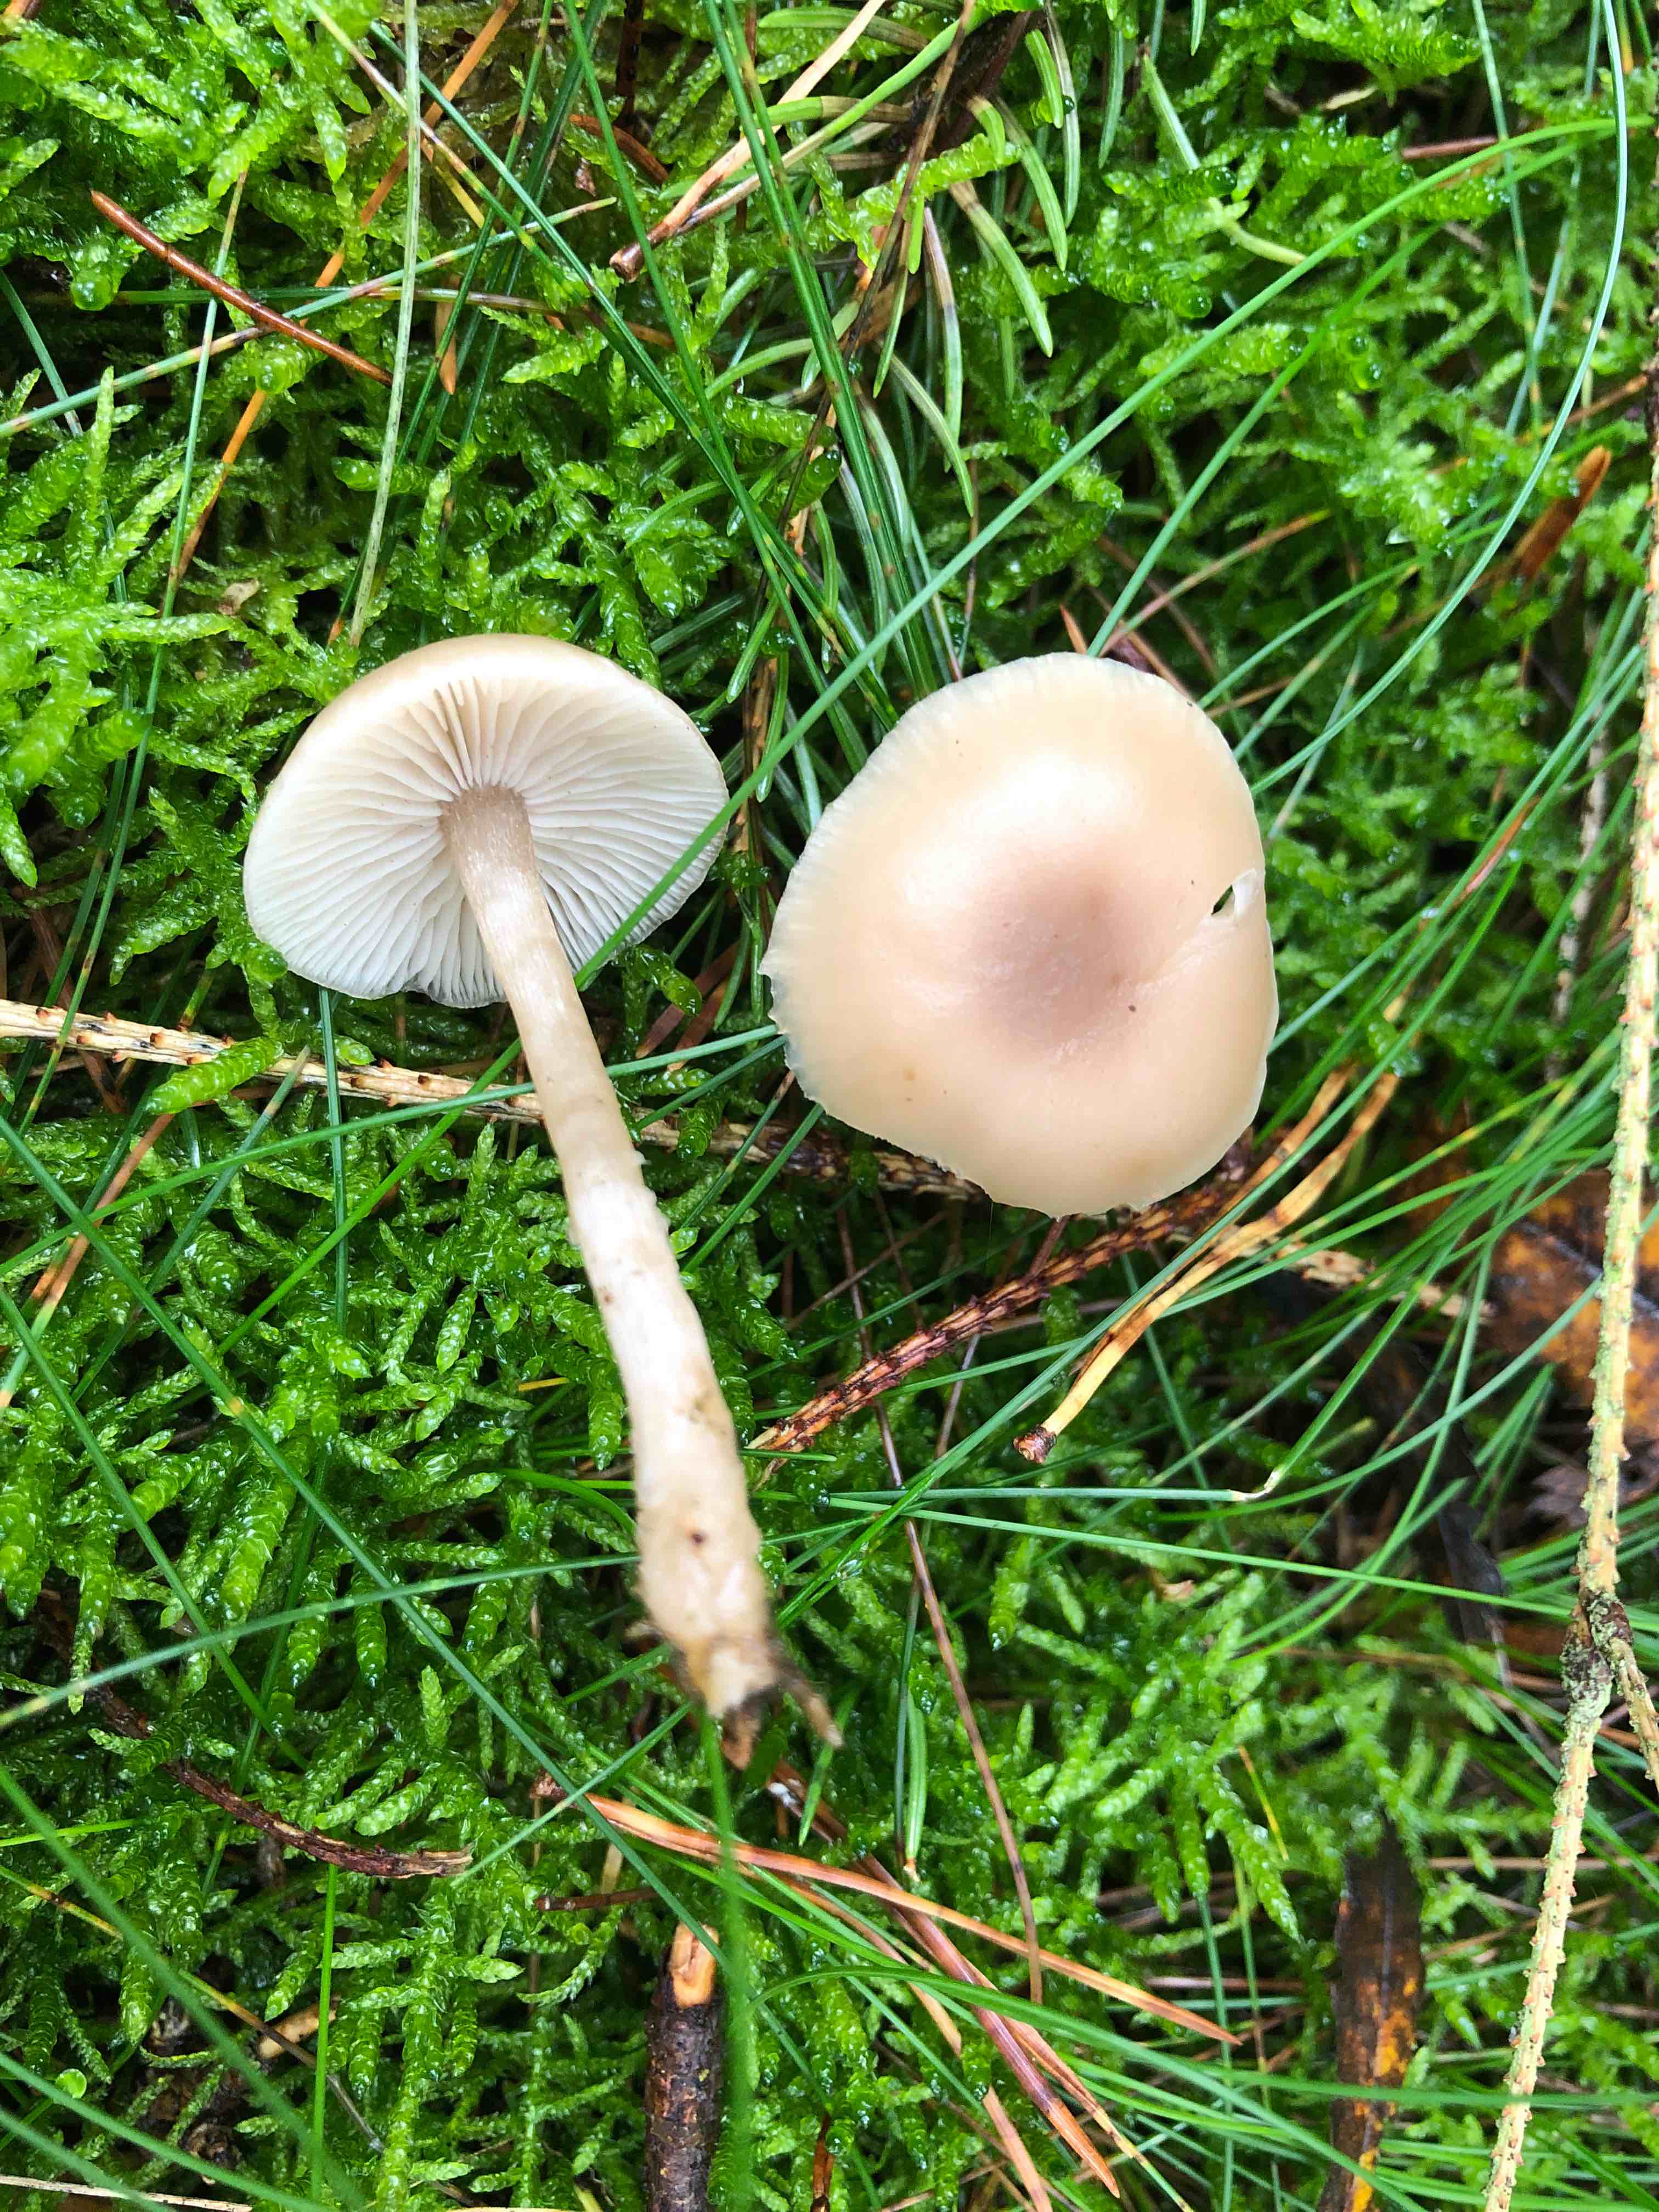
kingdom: Fungi
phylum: Basidiomycota
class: Agaricomycetes
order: Agaricales
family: Tricholomataceae
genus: Clitocybe
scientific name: Clitocybe fragrans
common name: vellugtende tragthat
